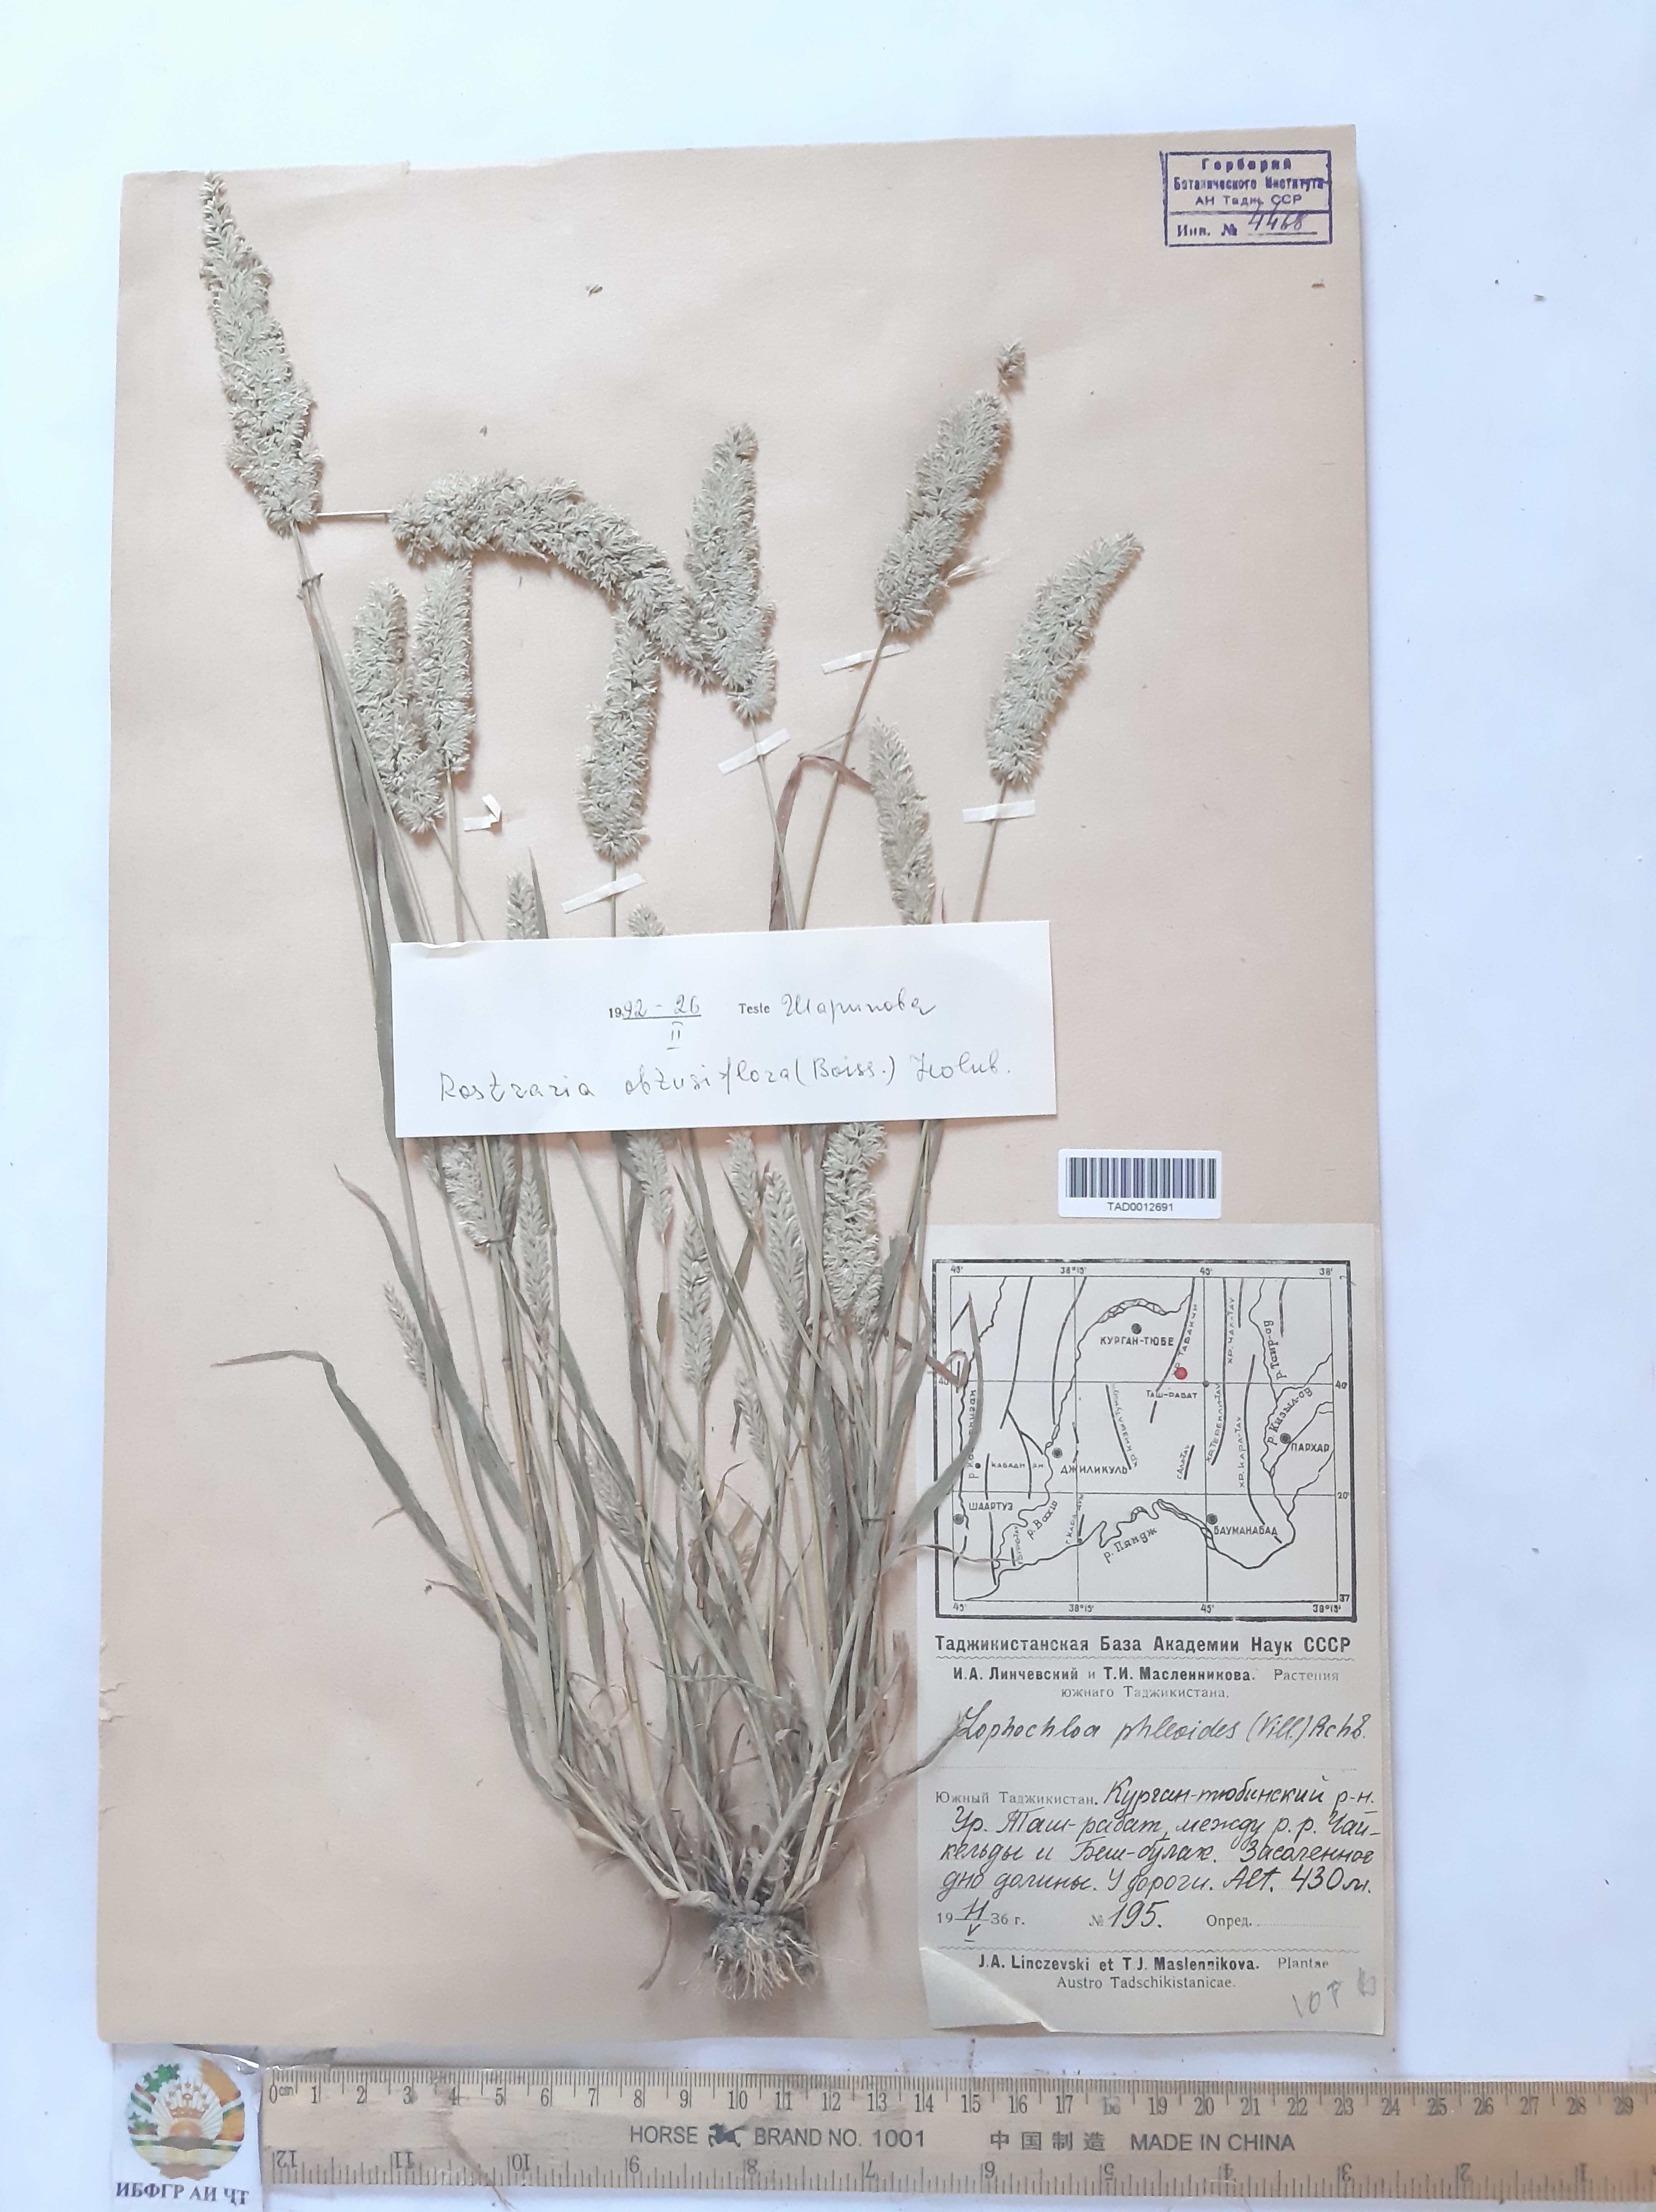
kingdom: Plantae
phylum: Tracheophyta
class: Liliopsida
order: Poales
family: Poaceae
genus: Rostraria
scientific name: Rostraria obtusiflora
